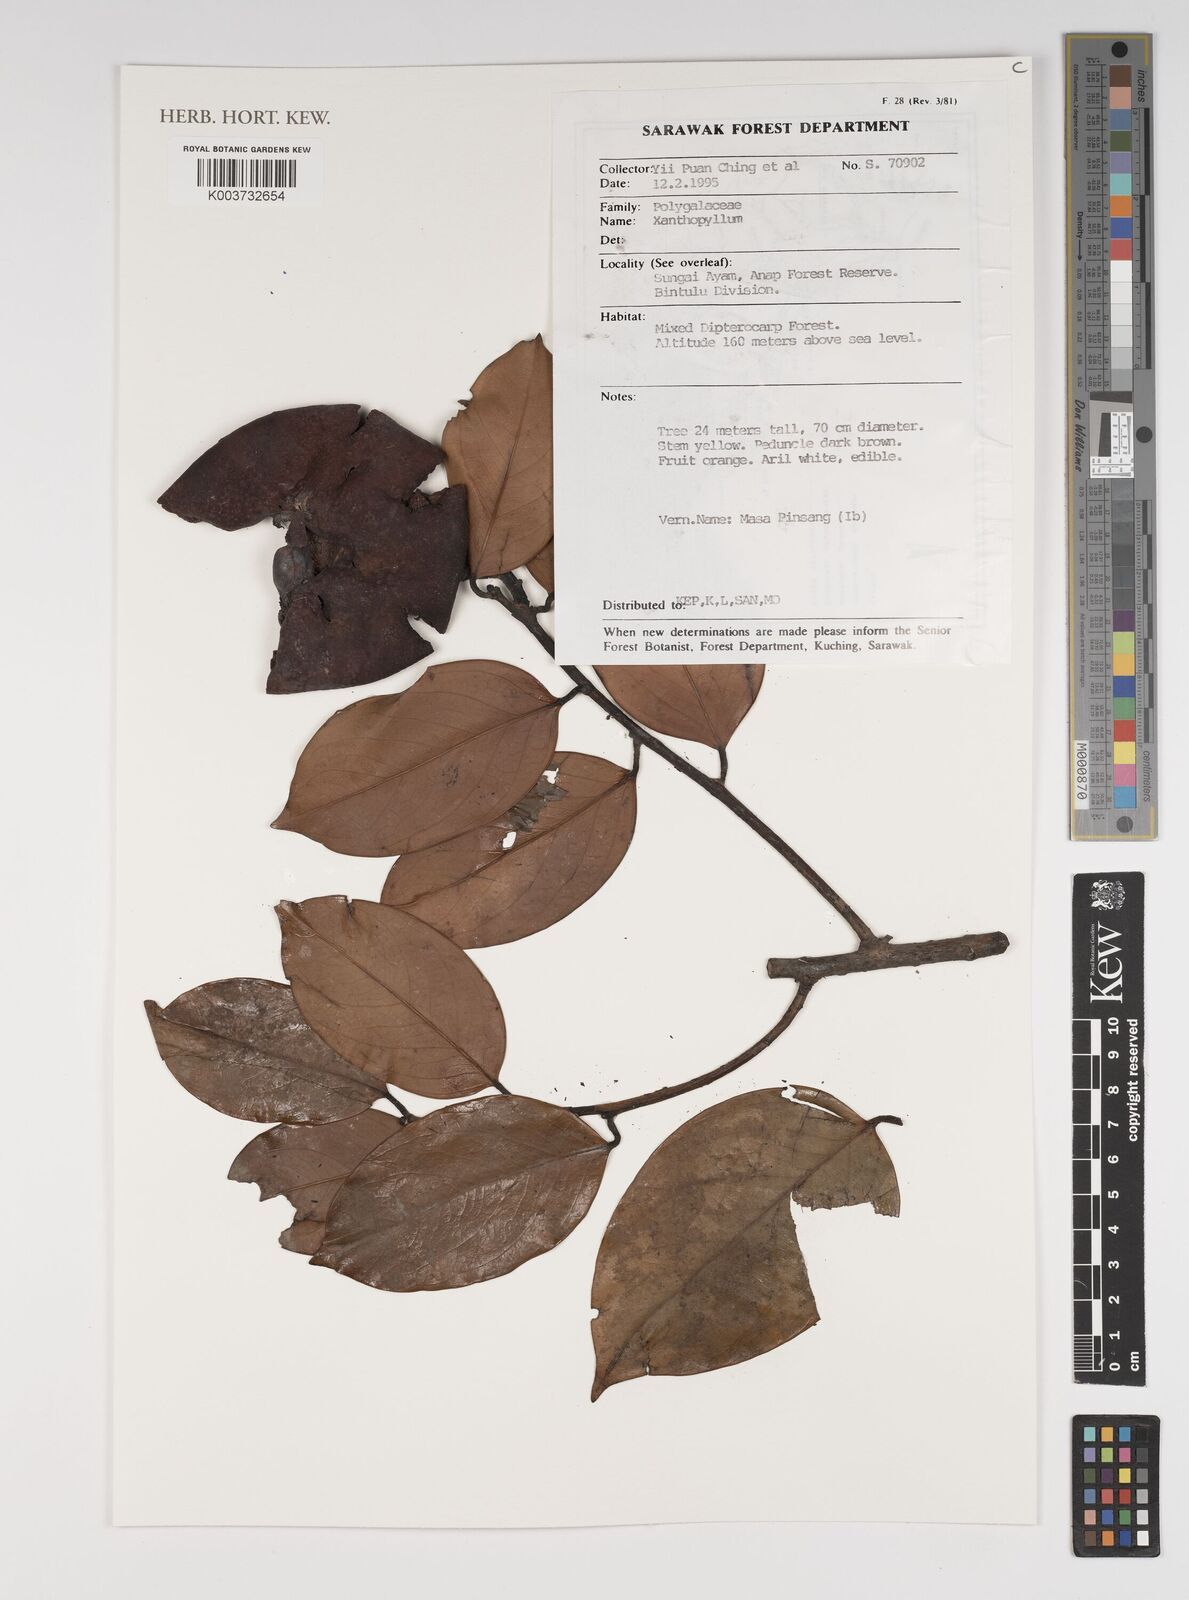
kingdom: Plantae
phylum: Tracheophyta
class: Magnoliopsida
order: Fabales
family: Polygalaceae
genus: Xanthophyllum
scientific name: Xanthophyllum
